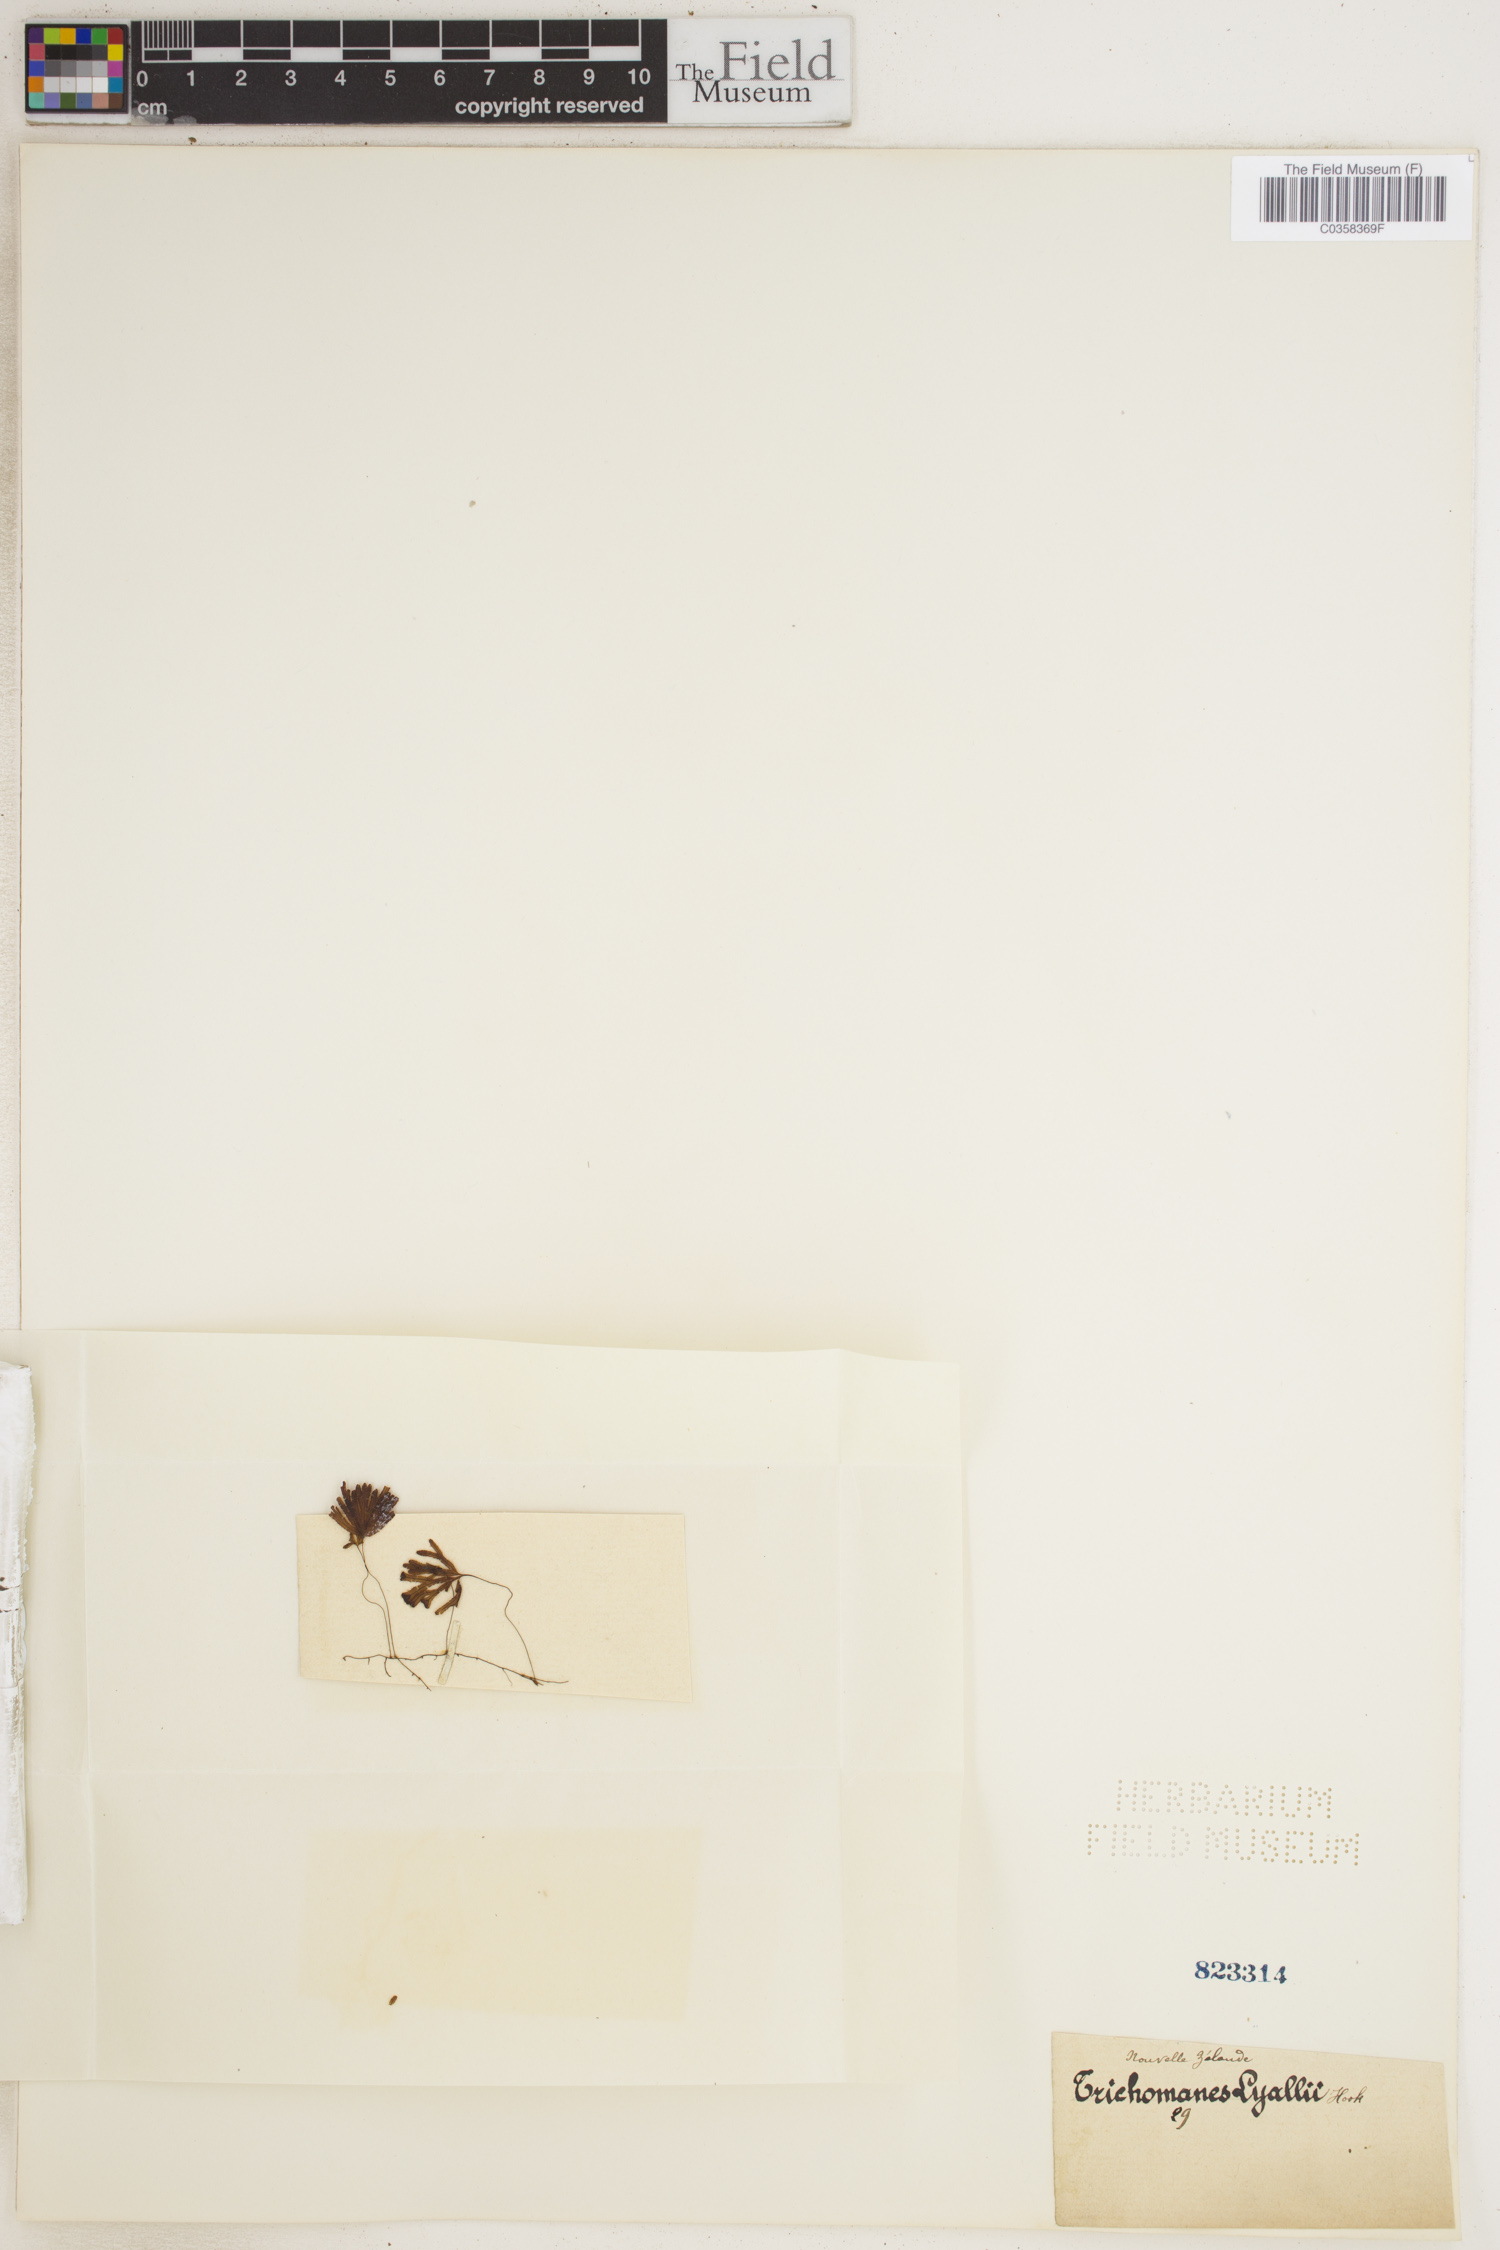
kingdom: Plantae
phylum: Tracheophyta
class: Polypodiopsida
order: Hymenophyllales
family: Hymenophyllaceae
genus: Hymenophyllum
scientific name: Hymenophyllum lyallii
